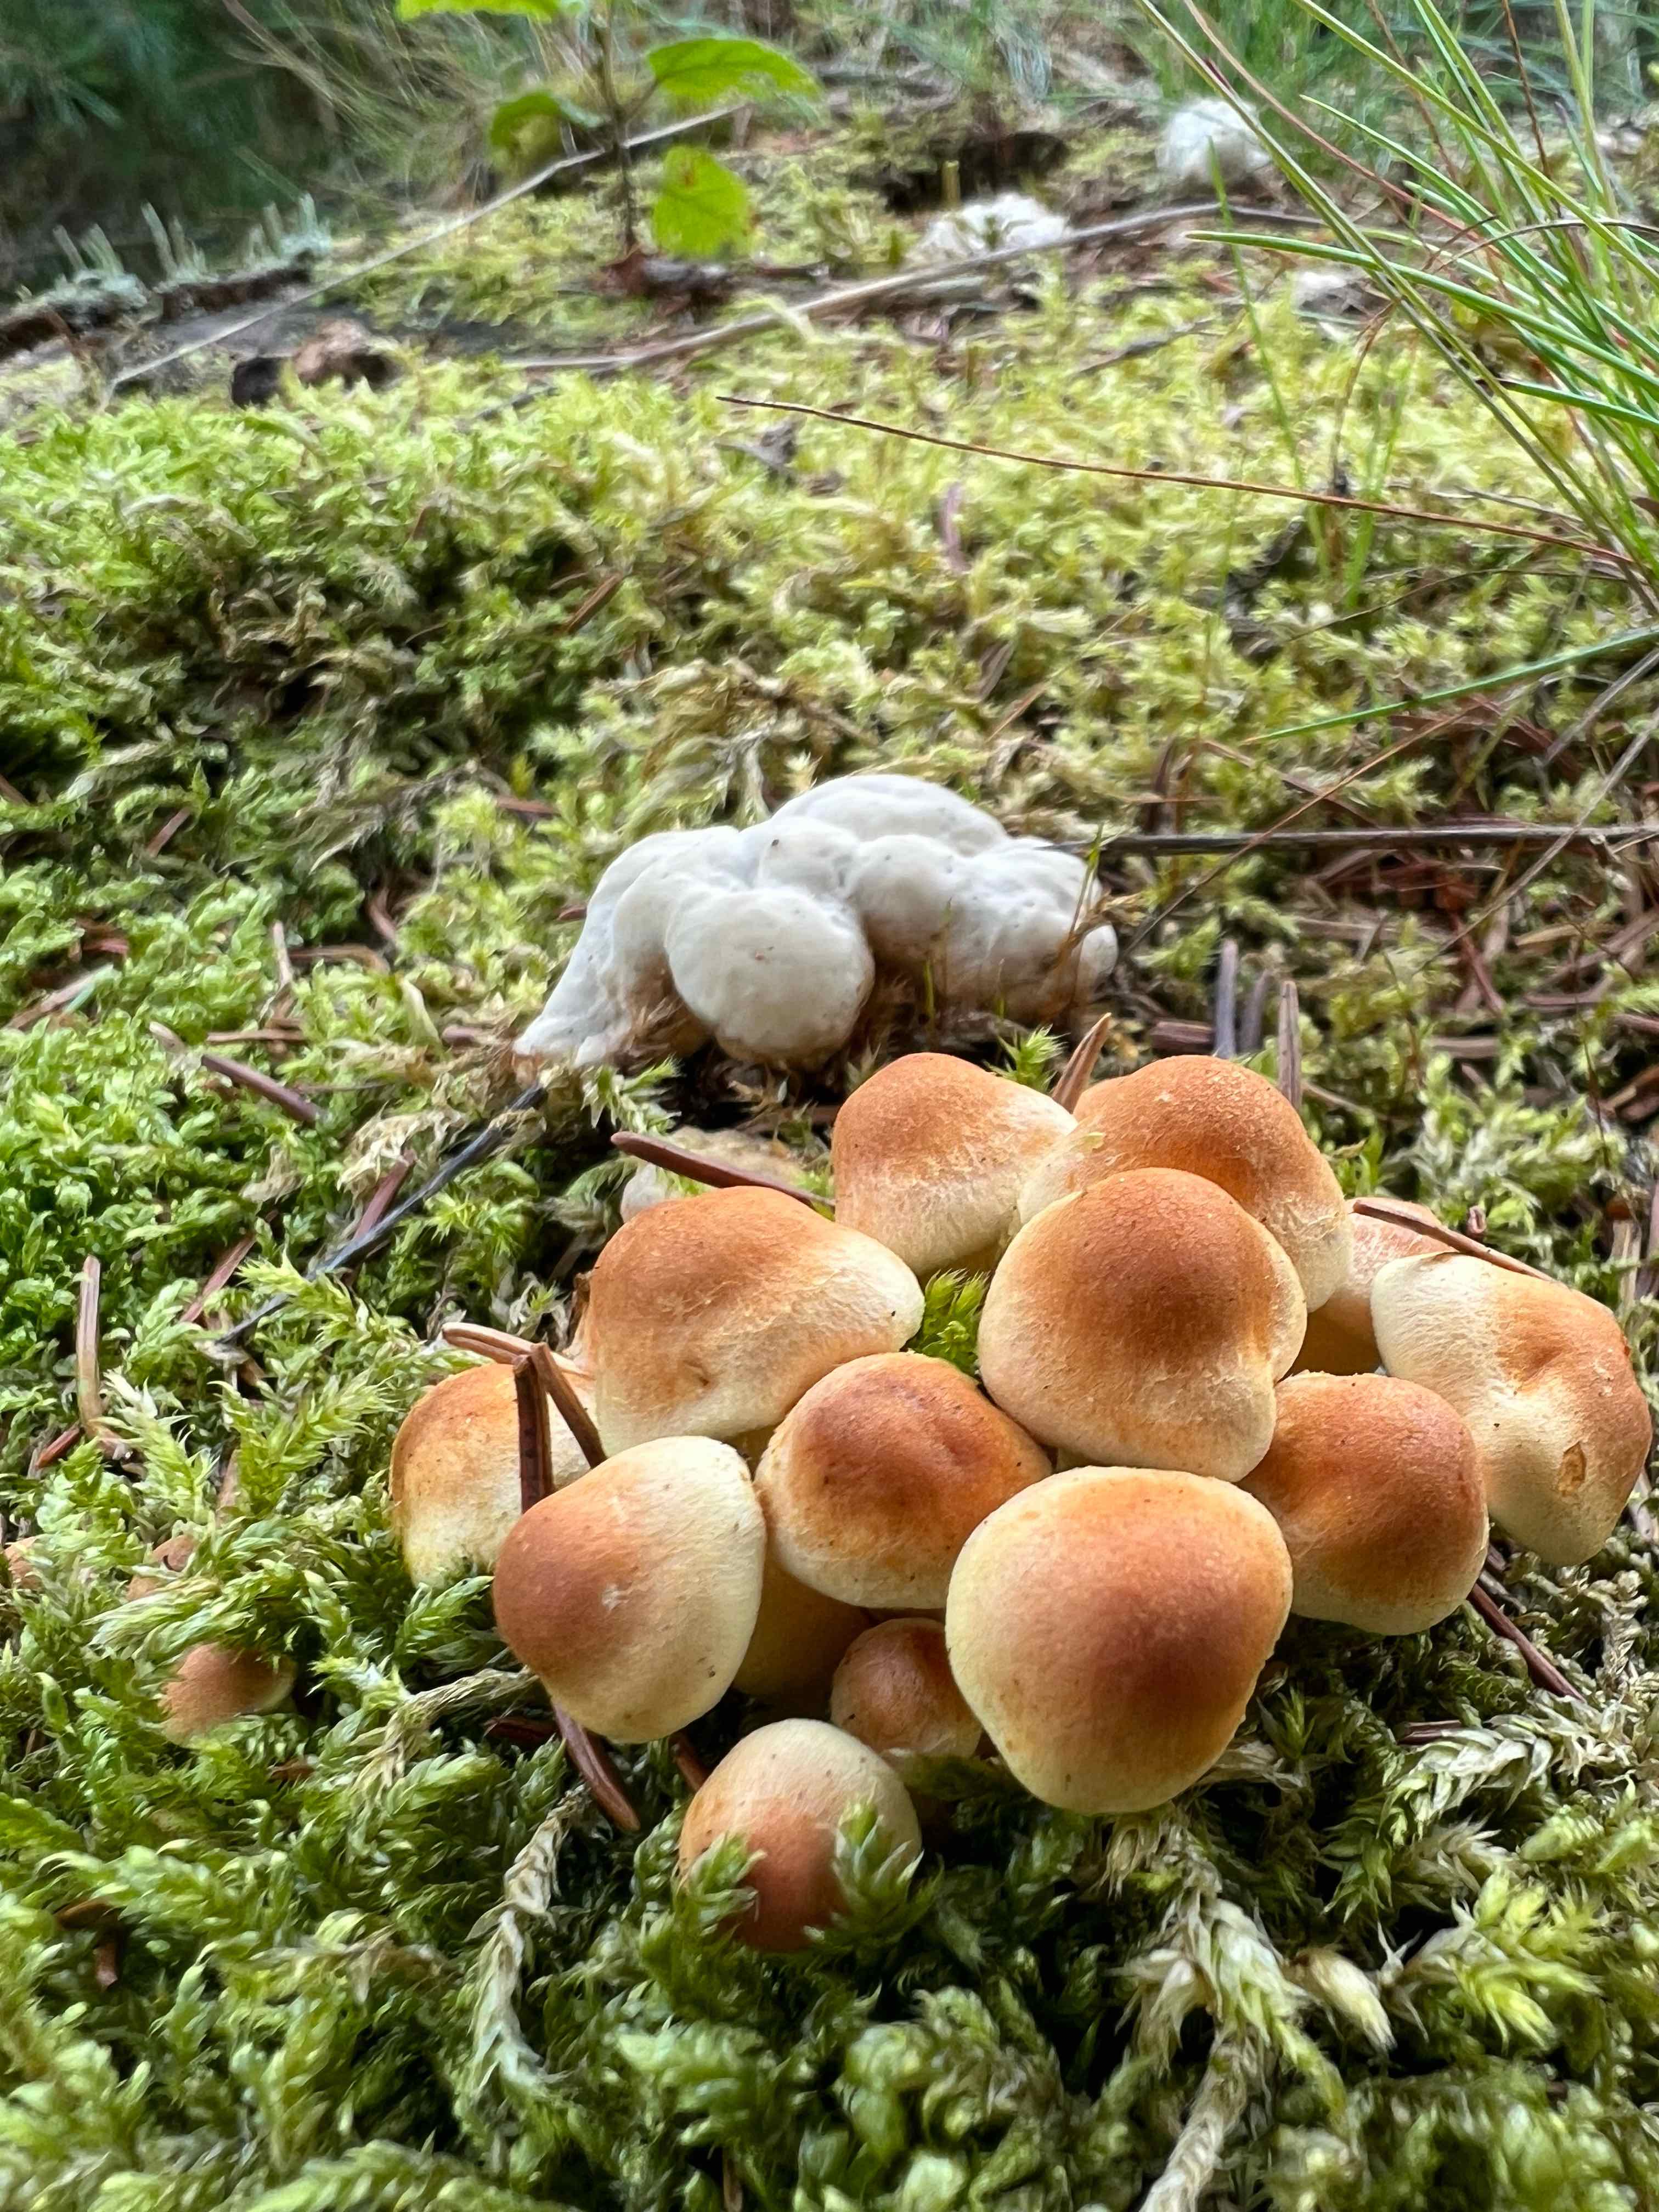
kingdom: Fungi
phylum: Basidiomycota
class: Agaricomycetes
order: Agaricales
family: Strophariaceae
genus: Hypholoma
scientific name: Hypholoma fasciculare
